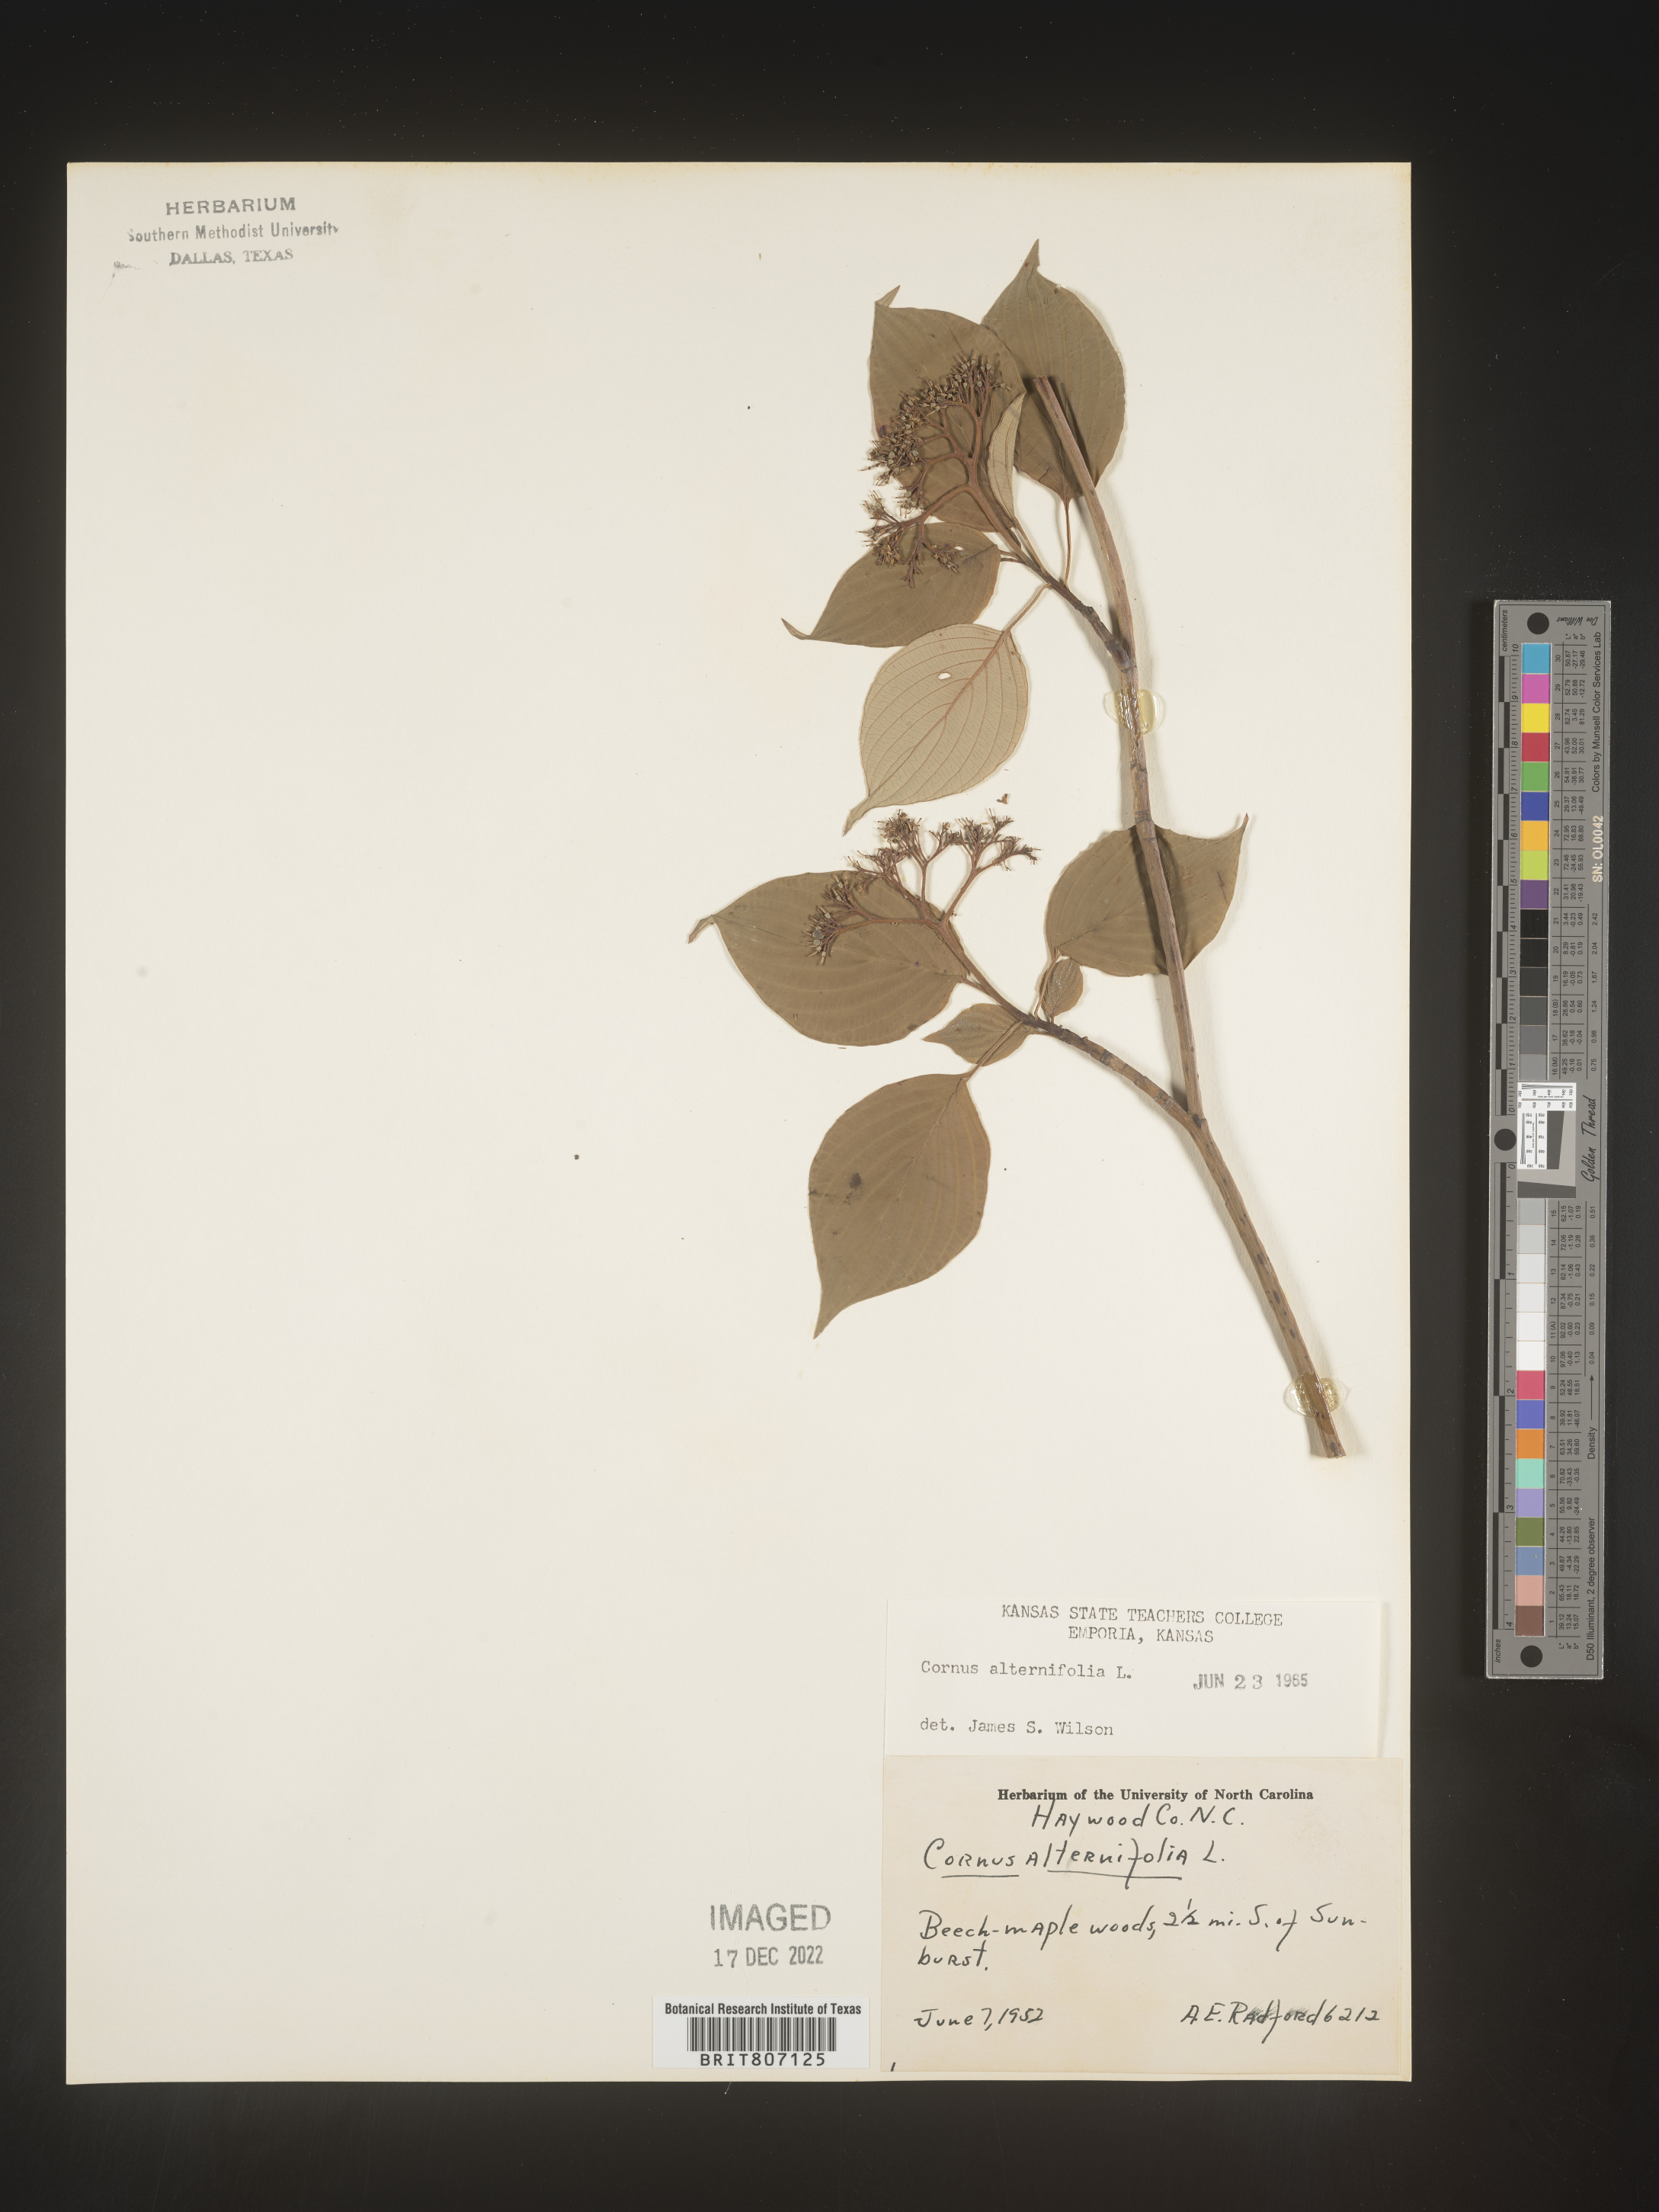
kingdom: Plantae
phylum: Tracheophyta
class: Magnoliopsida
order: Cornales
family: Cornaceae
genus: Cornus
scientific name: Cornus alternifolia
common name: Pagoda dogwood
